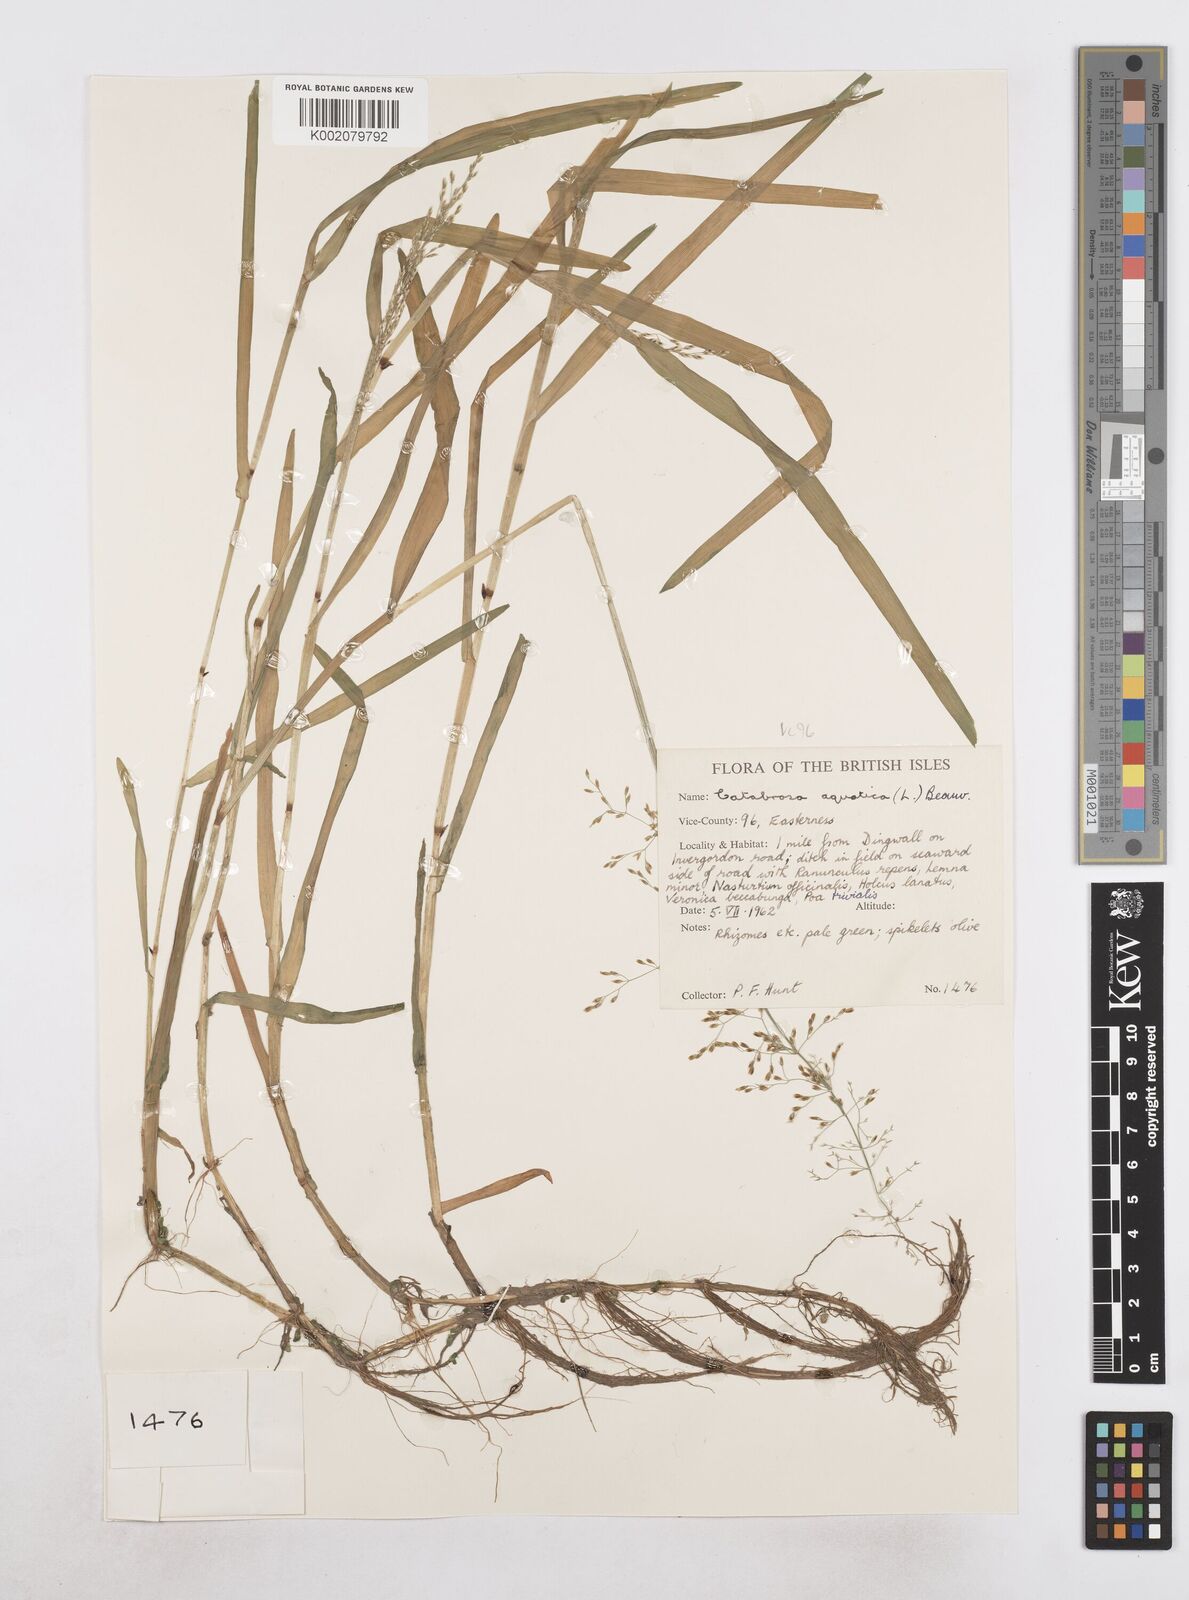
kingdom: Plantae
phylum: Tracheophyta
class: Liliopsida
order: Poales
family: Poaceae
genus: Catabrosa
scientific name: Catabrosa aquatica
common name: Whorl-grass
